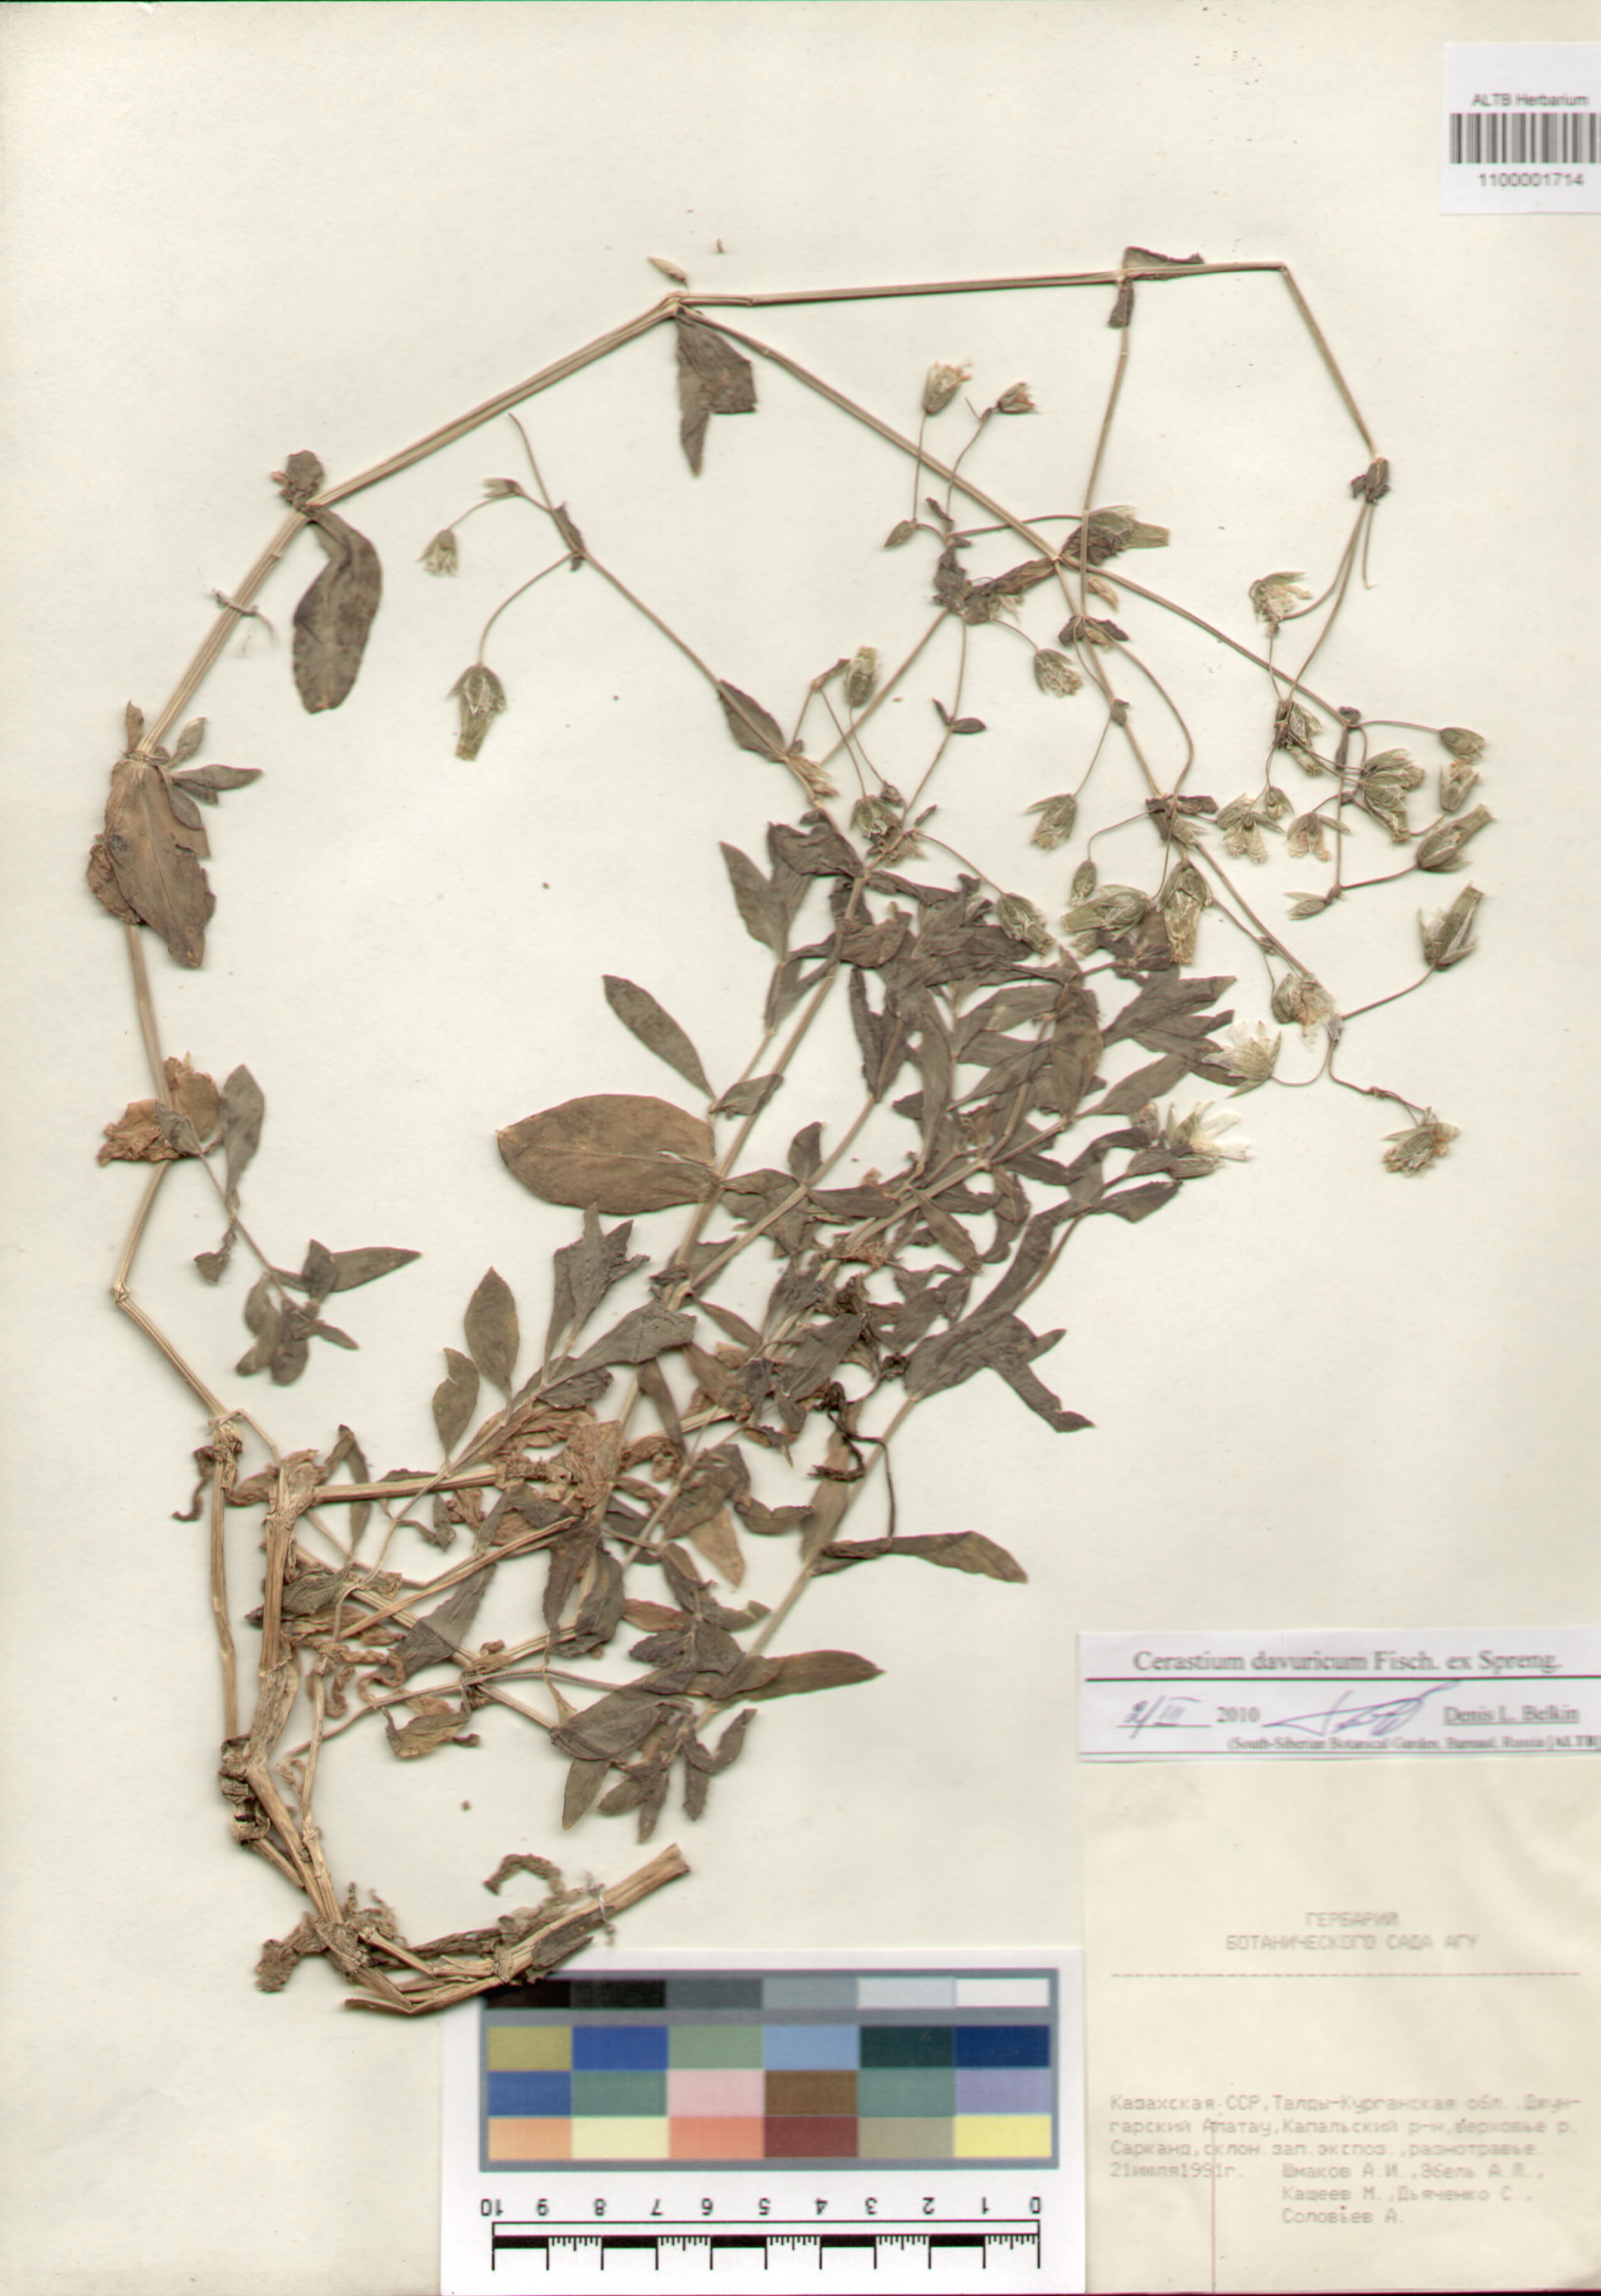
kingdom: Plantae
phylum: Tracheophyta
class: Magnoliopsida
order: Caryophyllales
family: Caryophyllaceae
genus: Dichodon
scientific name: Dichodon davuricum
